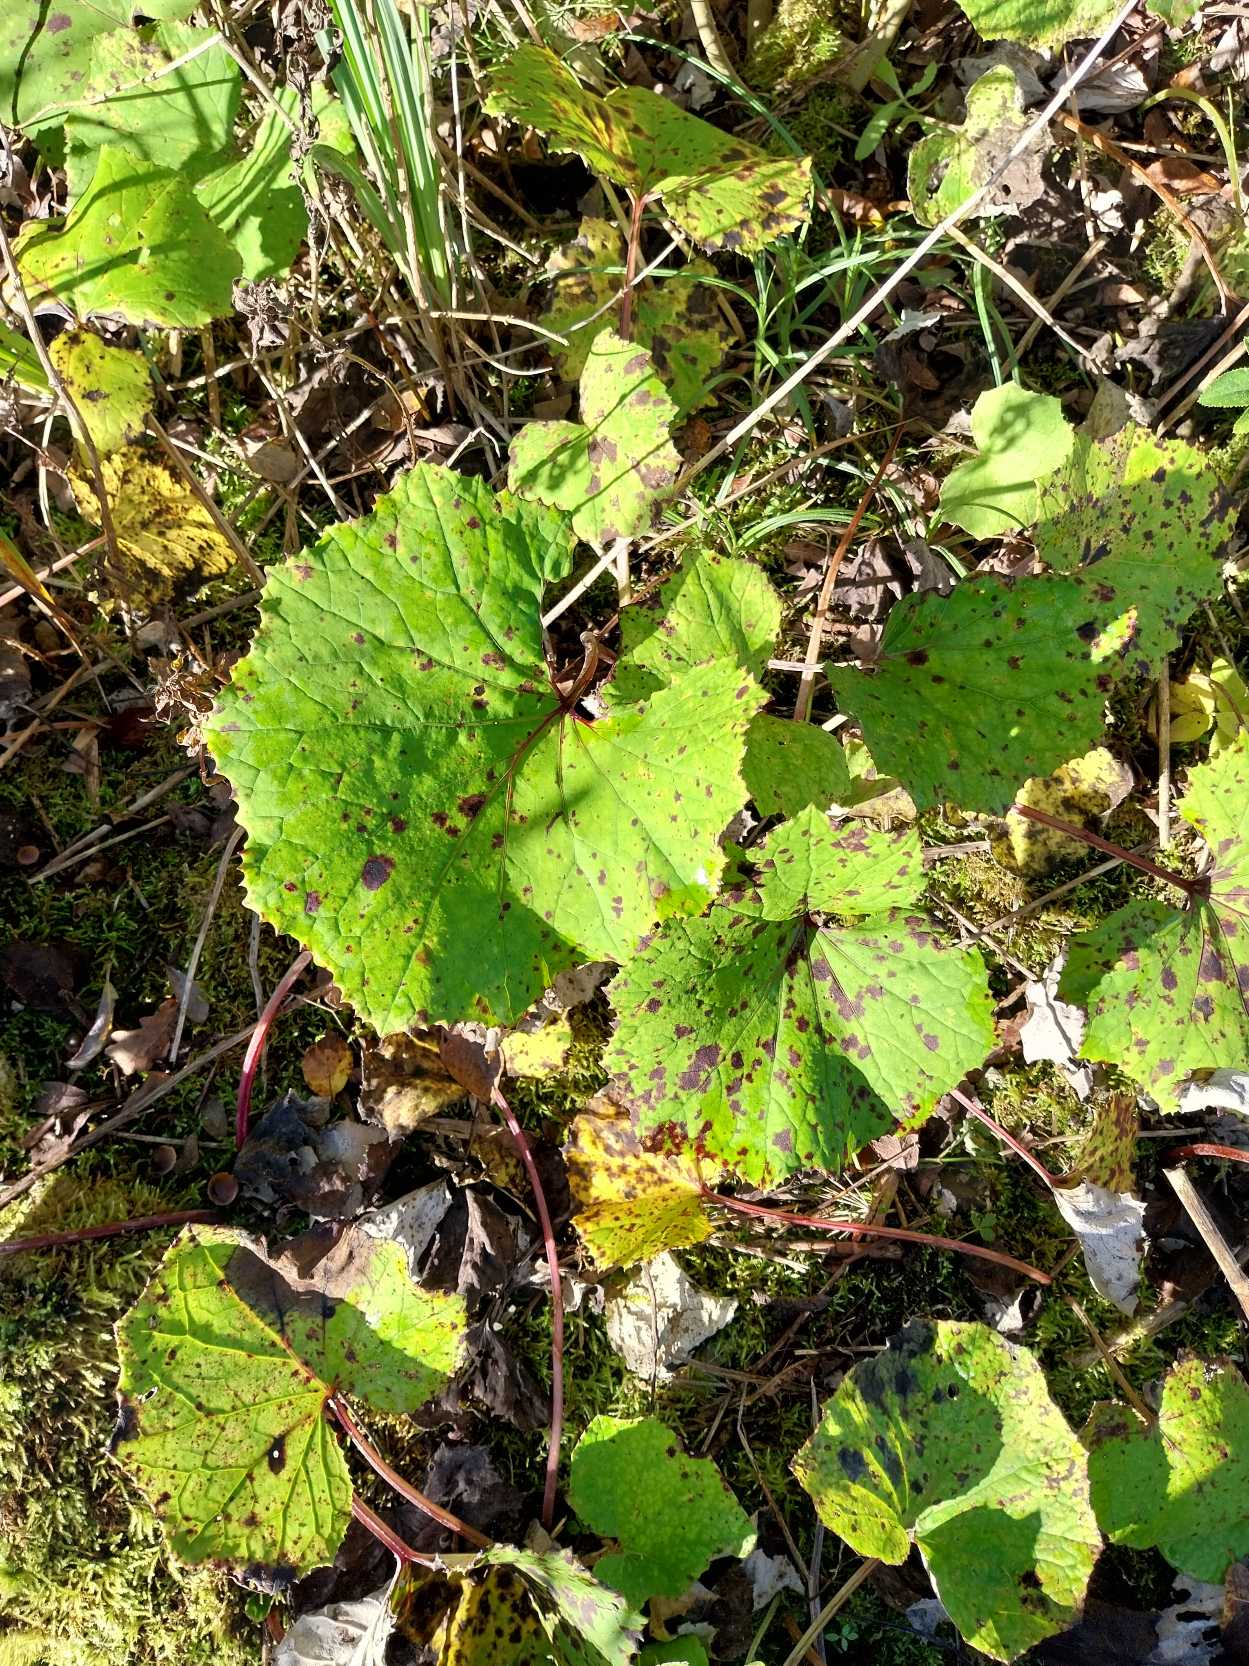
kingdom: Plantae
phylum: Tracheophyta
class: Magnoliopsida
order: Asterales
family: Asteraceae
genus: Tussilago
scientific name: Tussilago farfara
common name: Følfod
